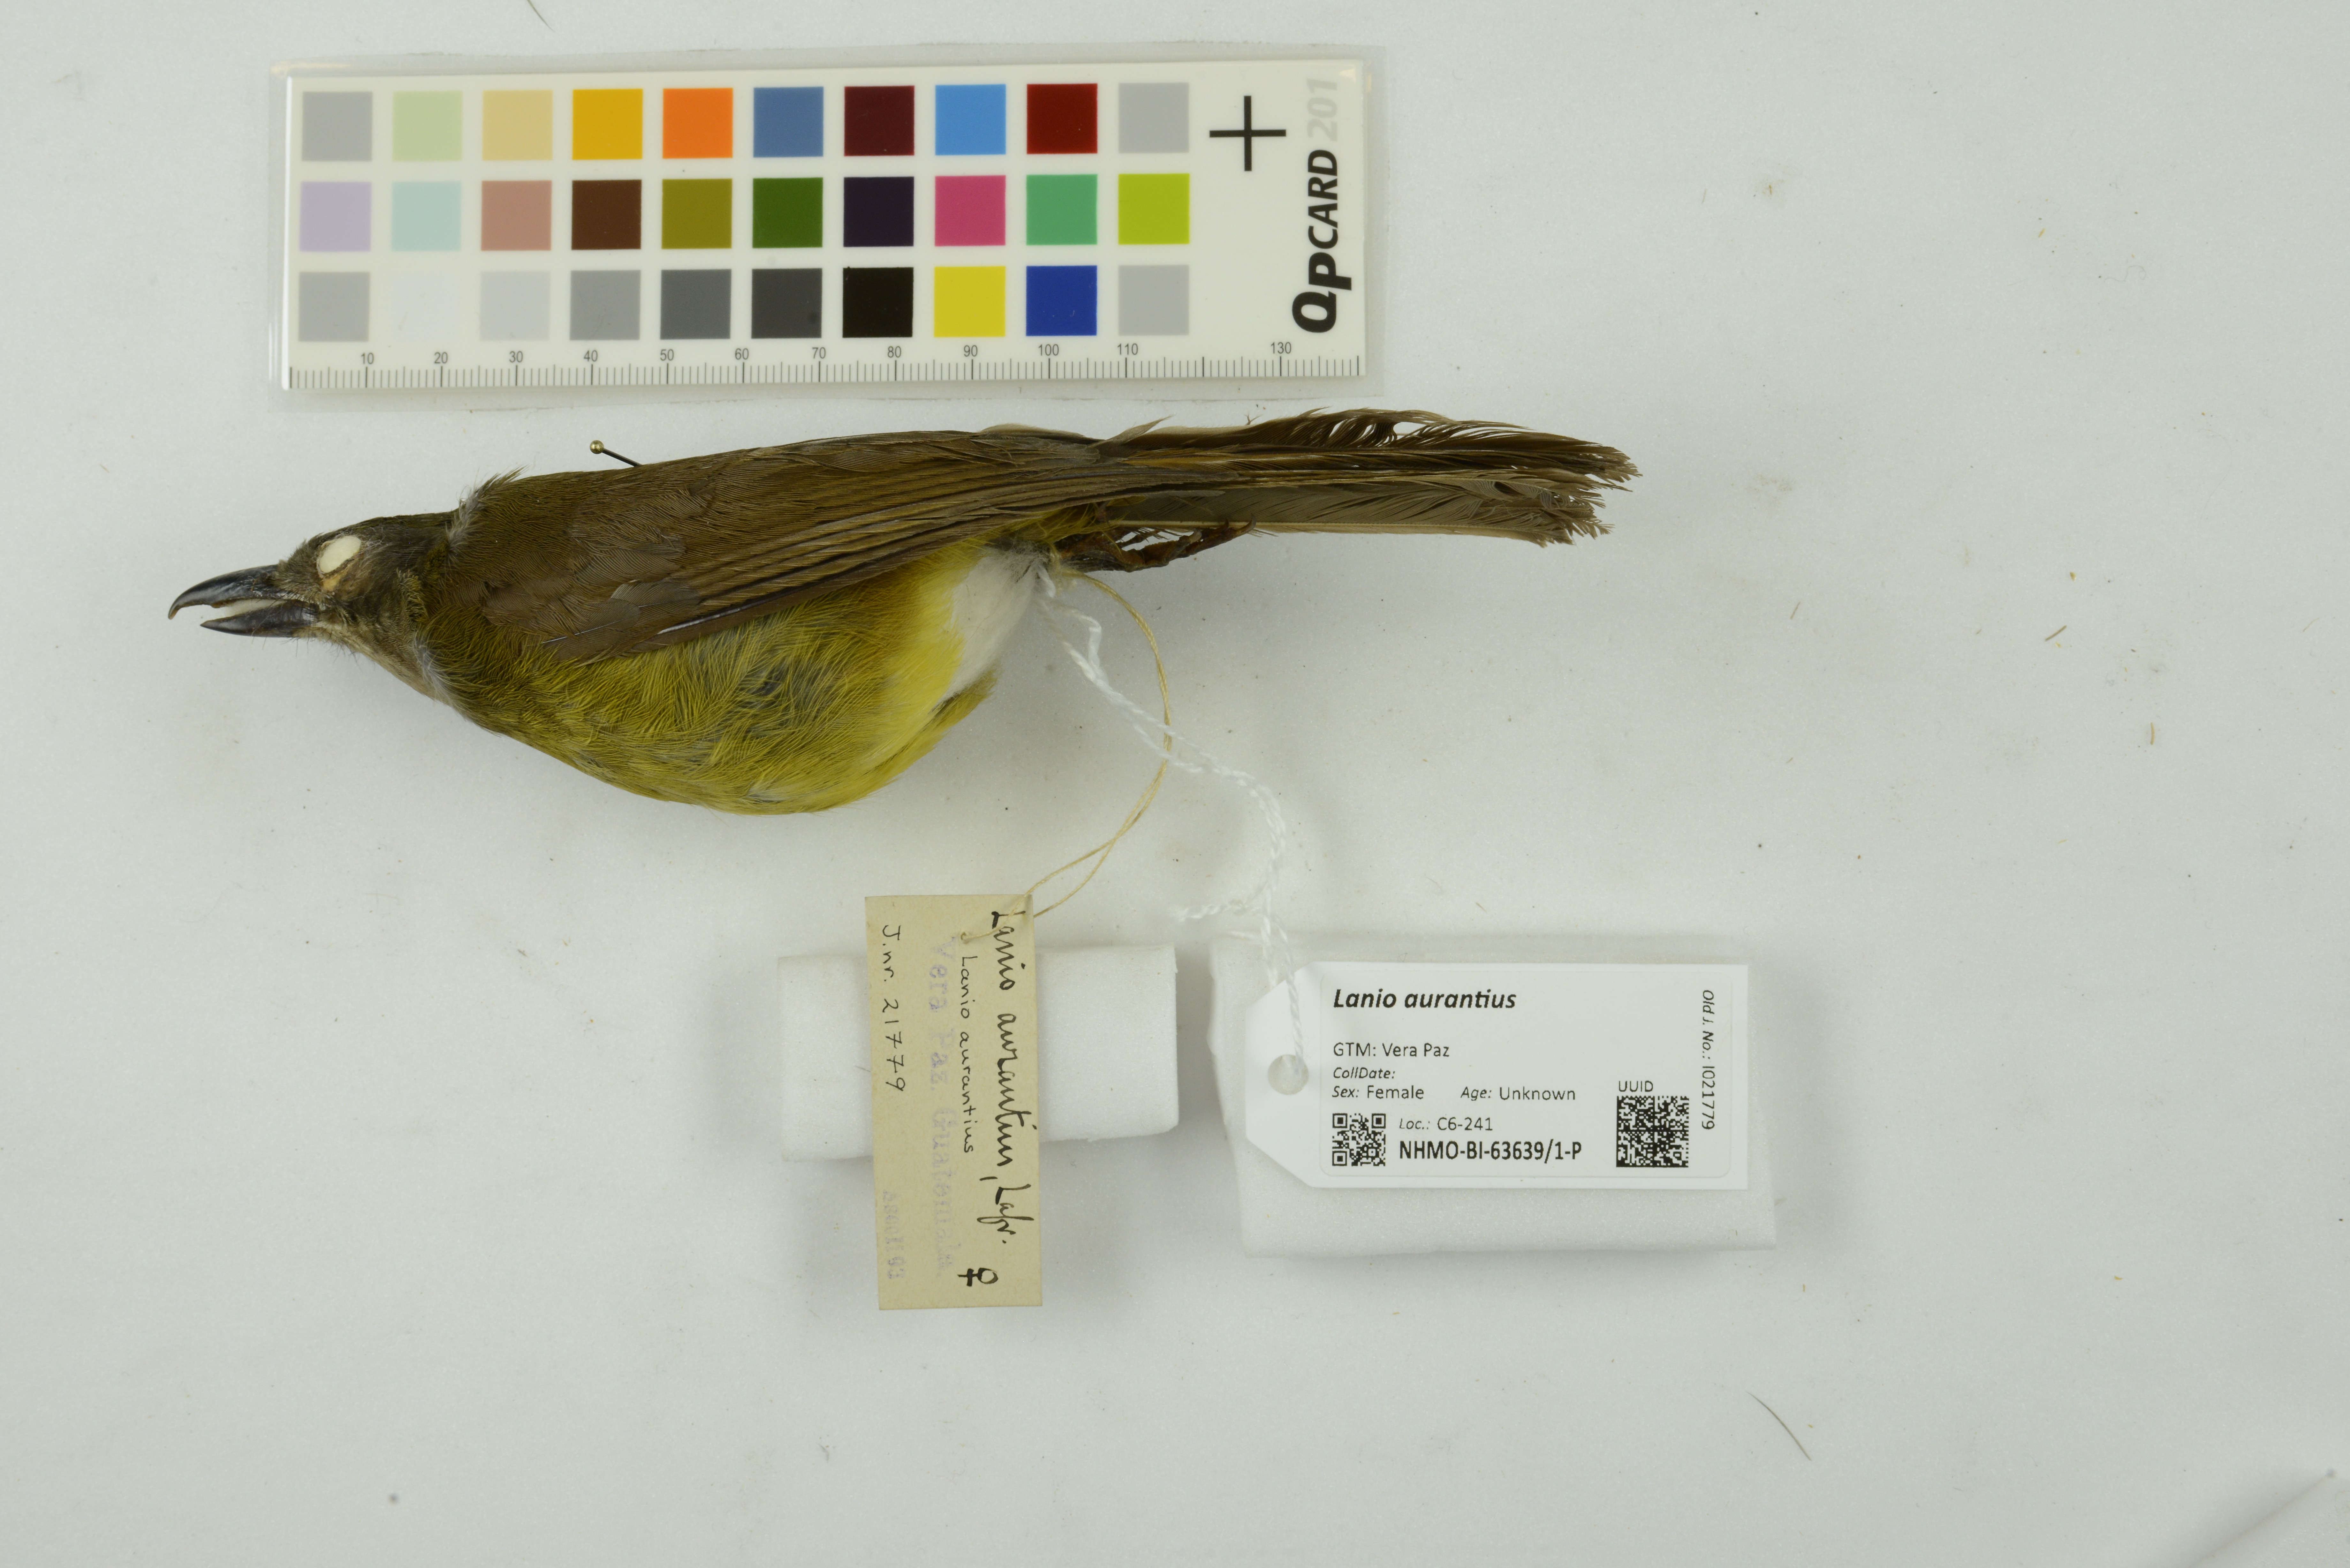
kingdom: Animalia
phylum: Chordata
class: Aves
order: Passeriformes
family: Thraupidae
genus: Lanio
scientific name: Lanio aurantius
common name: Black-throated shrike-tanager
